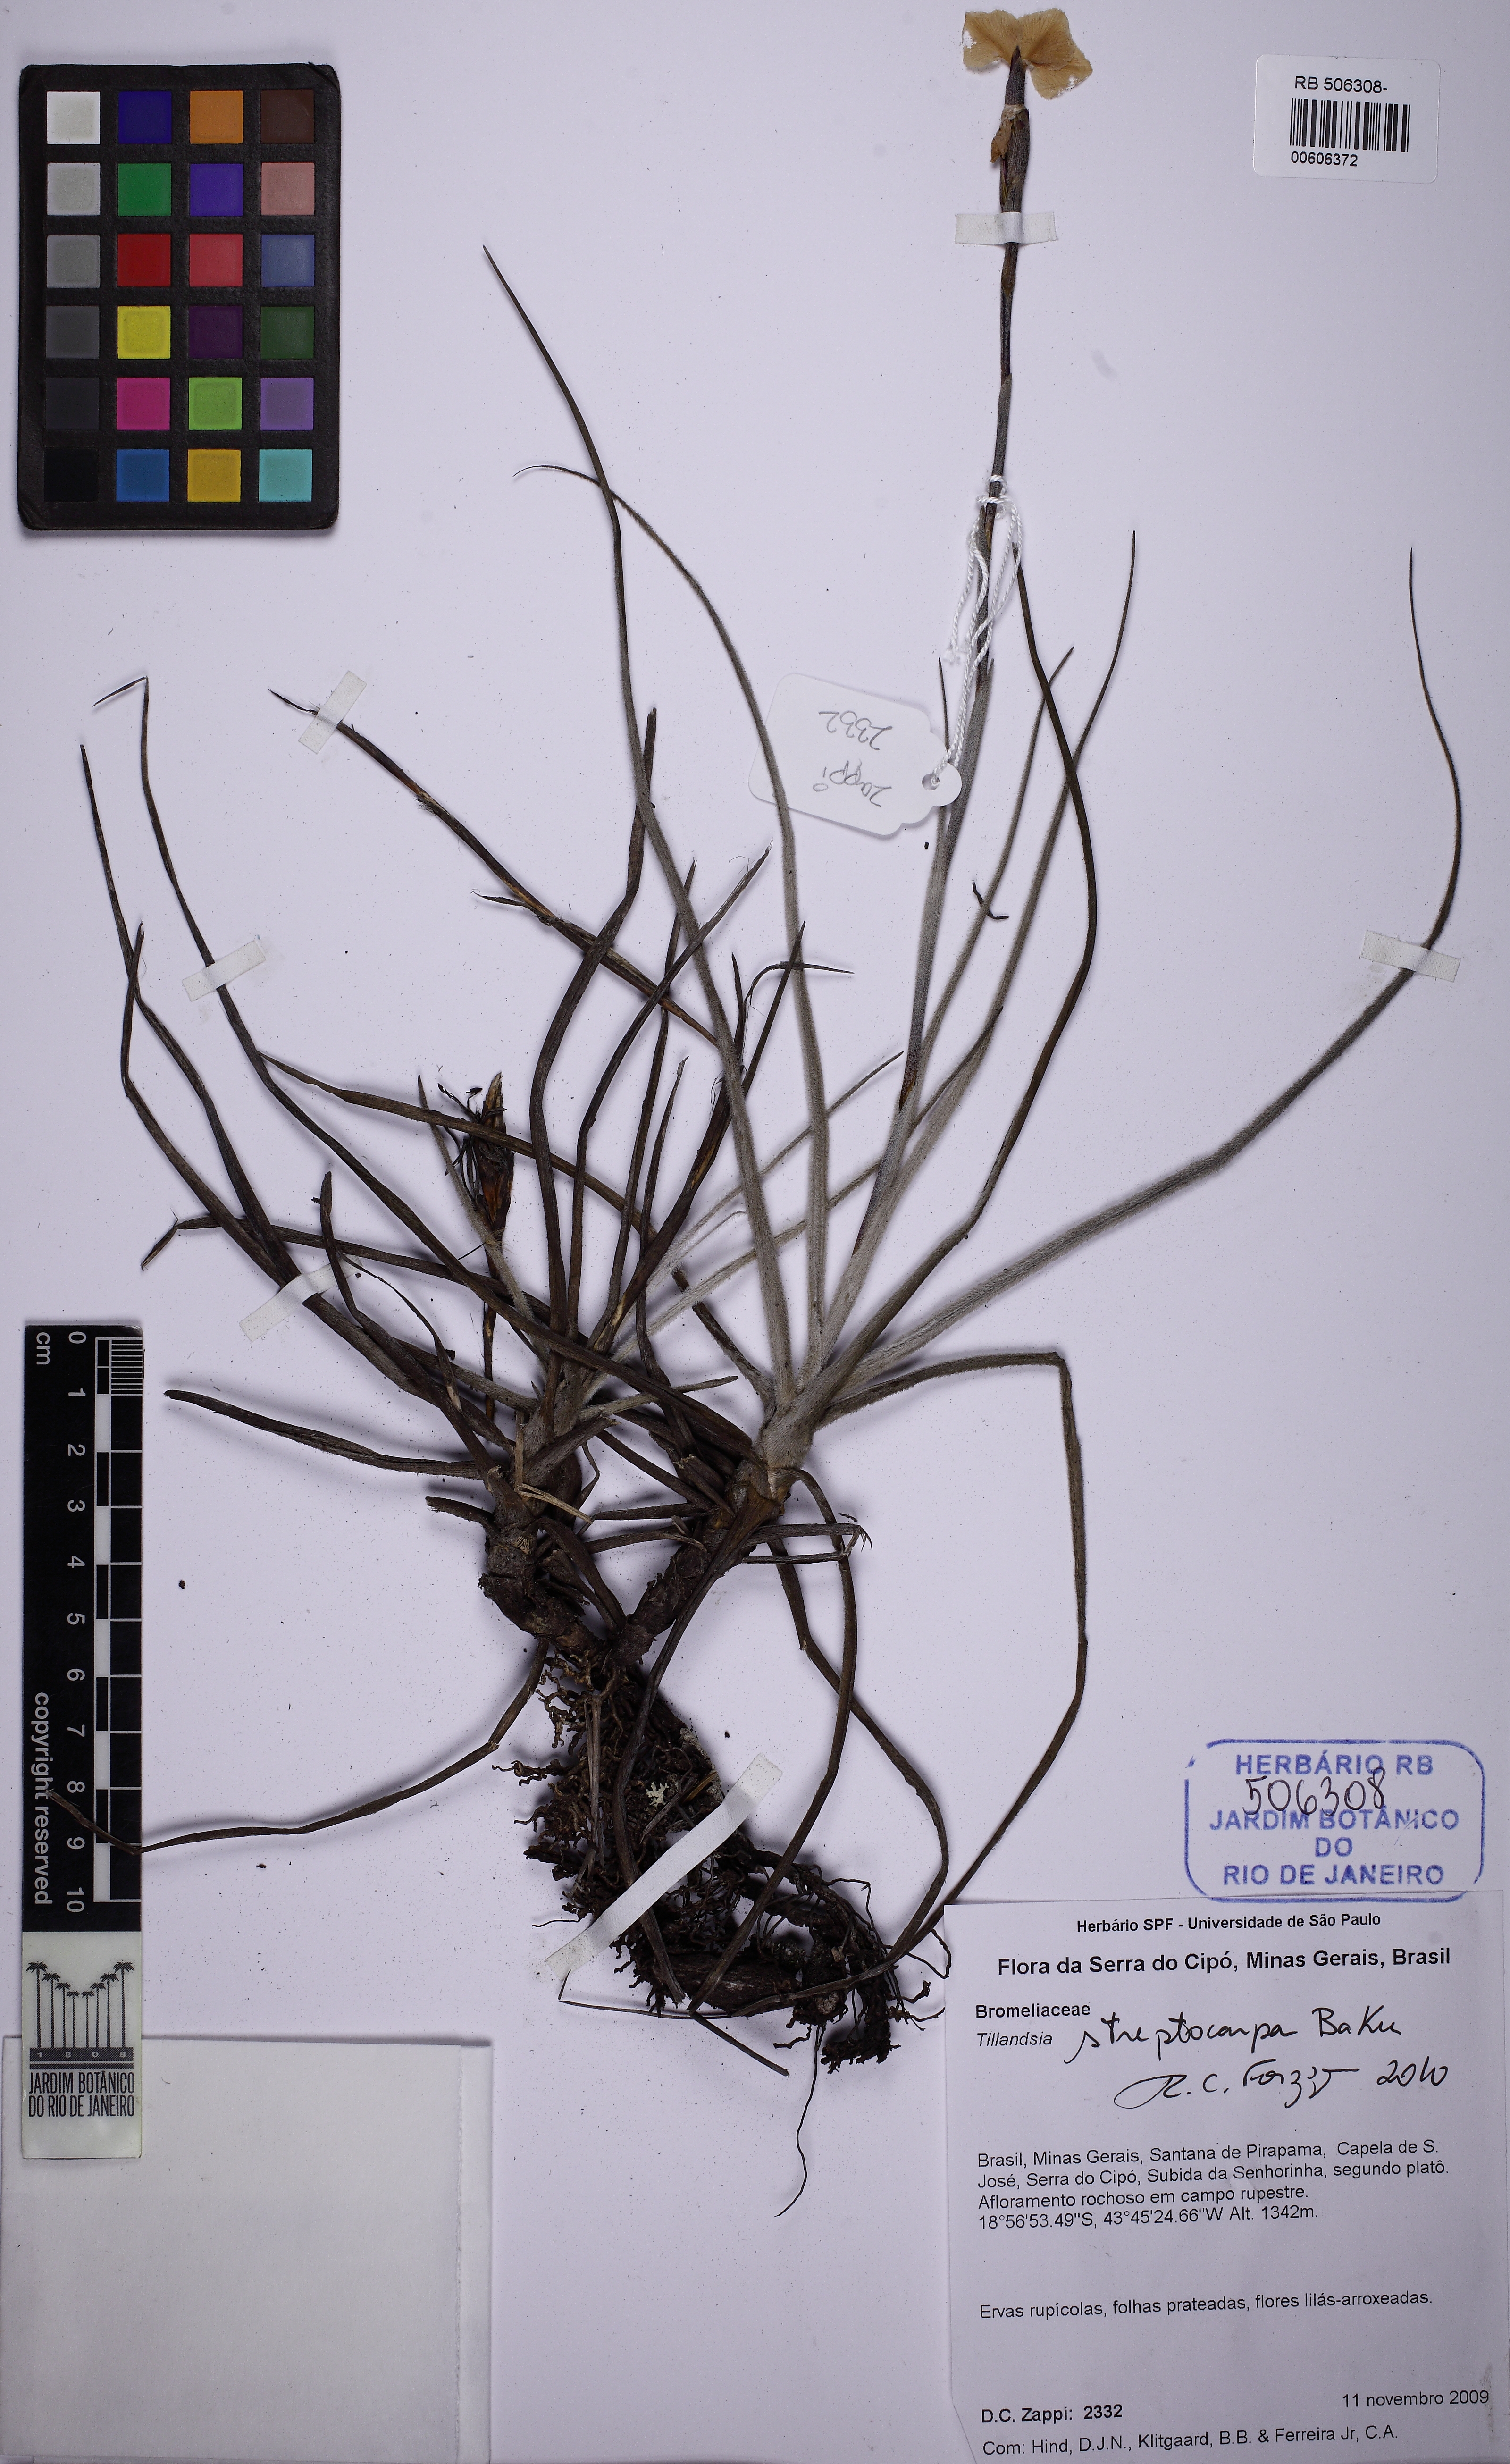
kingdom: Plantae
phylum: Tracheophyta
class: Liliopsida
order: Poales
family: Bromeliaceae
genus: Tillandsia
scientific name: Tillandsia streptocarpa
